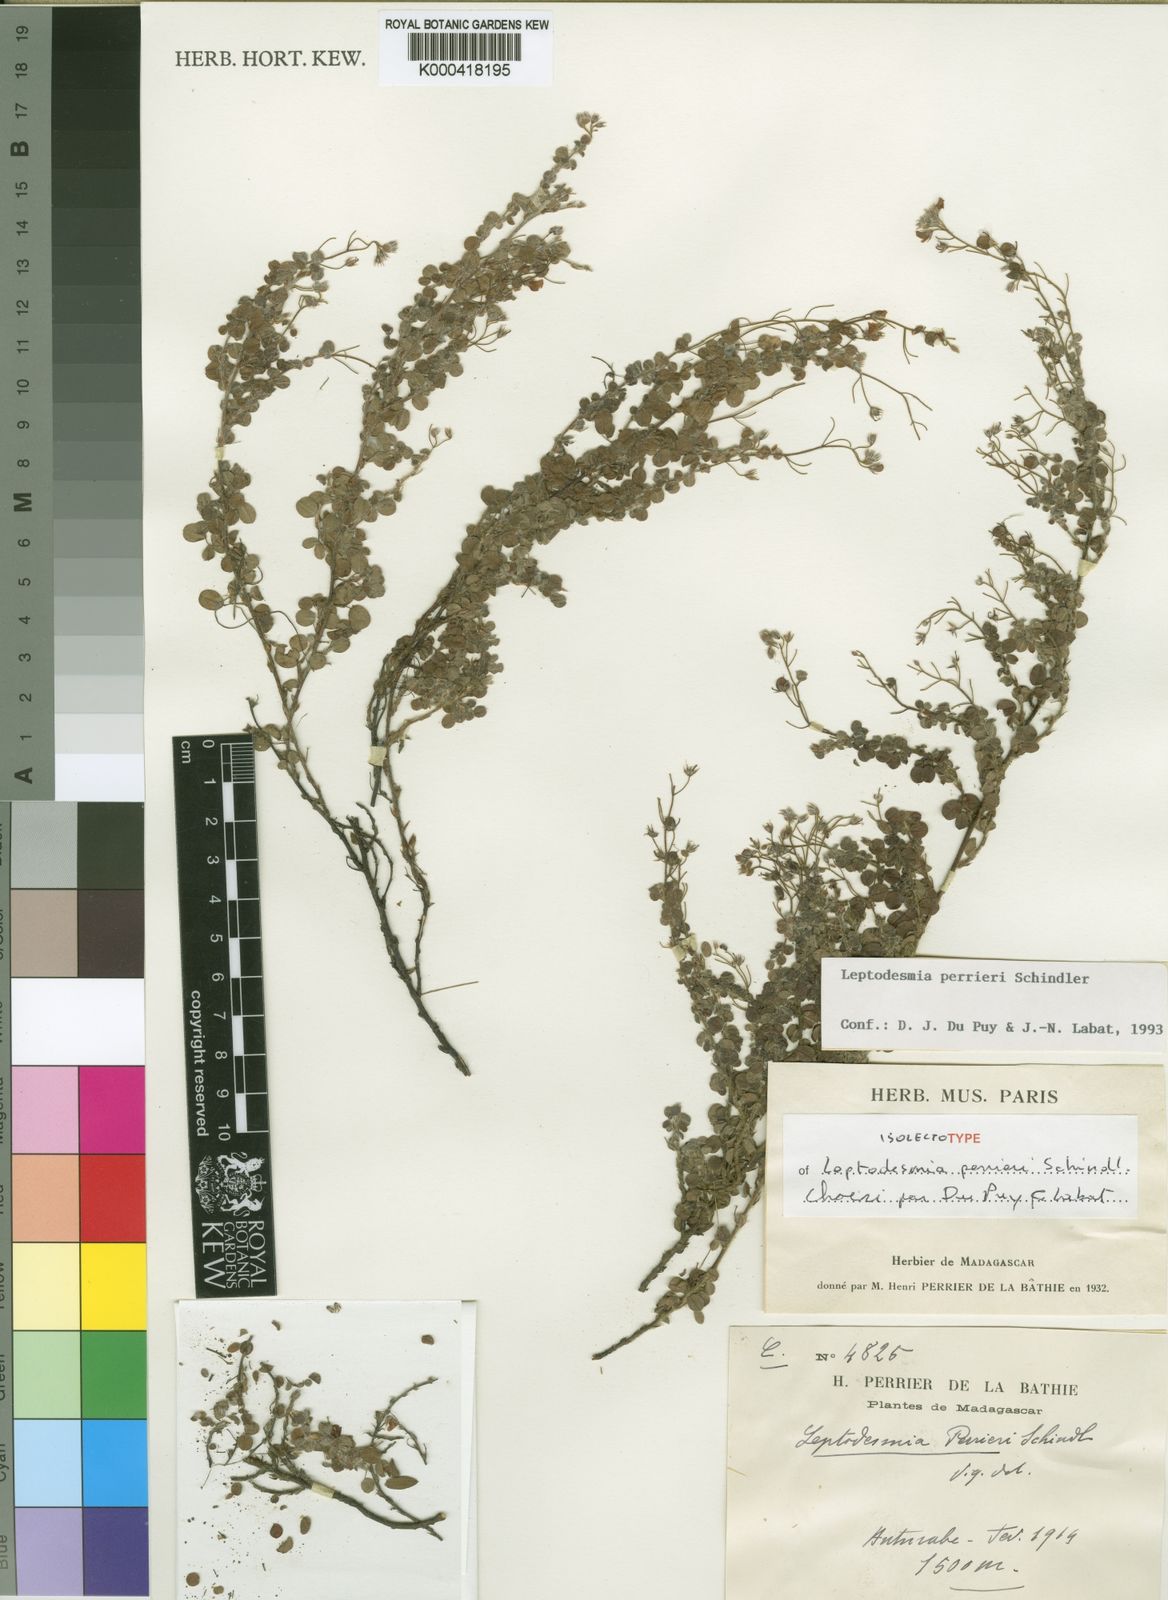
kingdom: Plantae
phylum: Tracheophyta
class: Magnoliopsida
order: Fabales
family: Fabaceae
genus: Leptodesmia
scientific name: Leptodesmia perrieri
